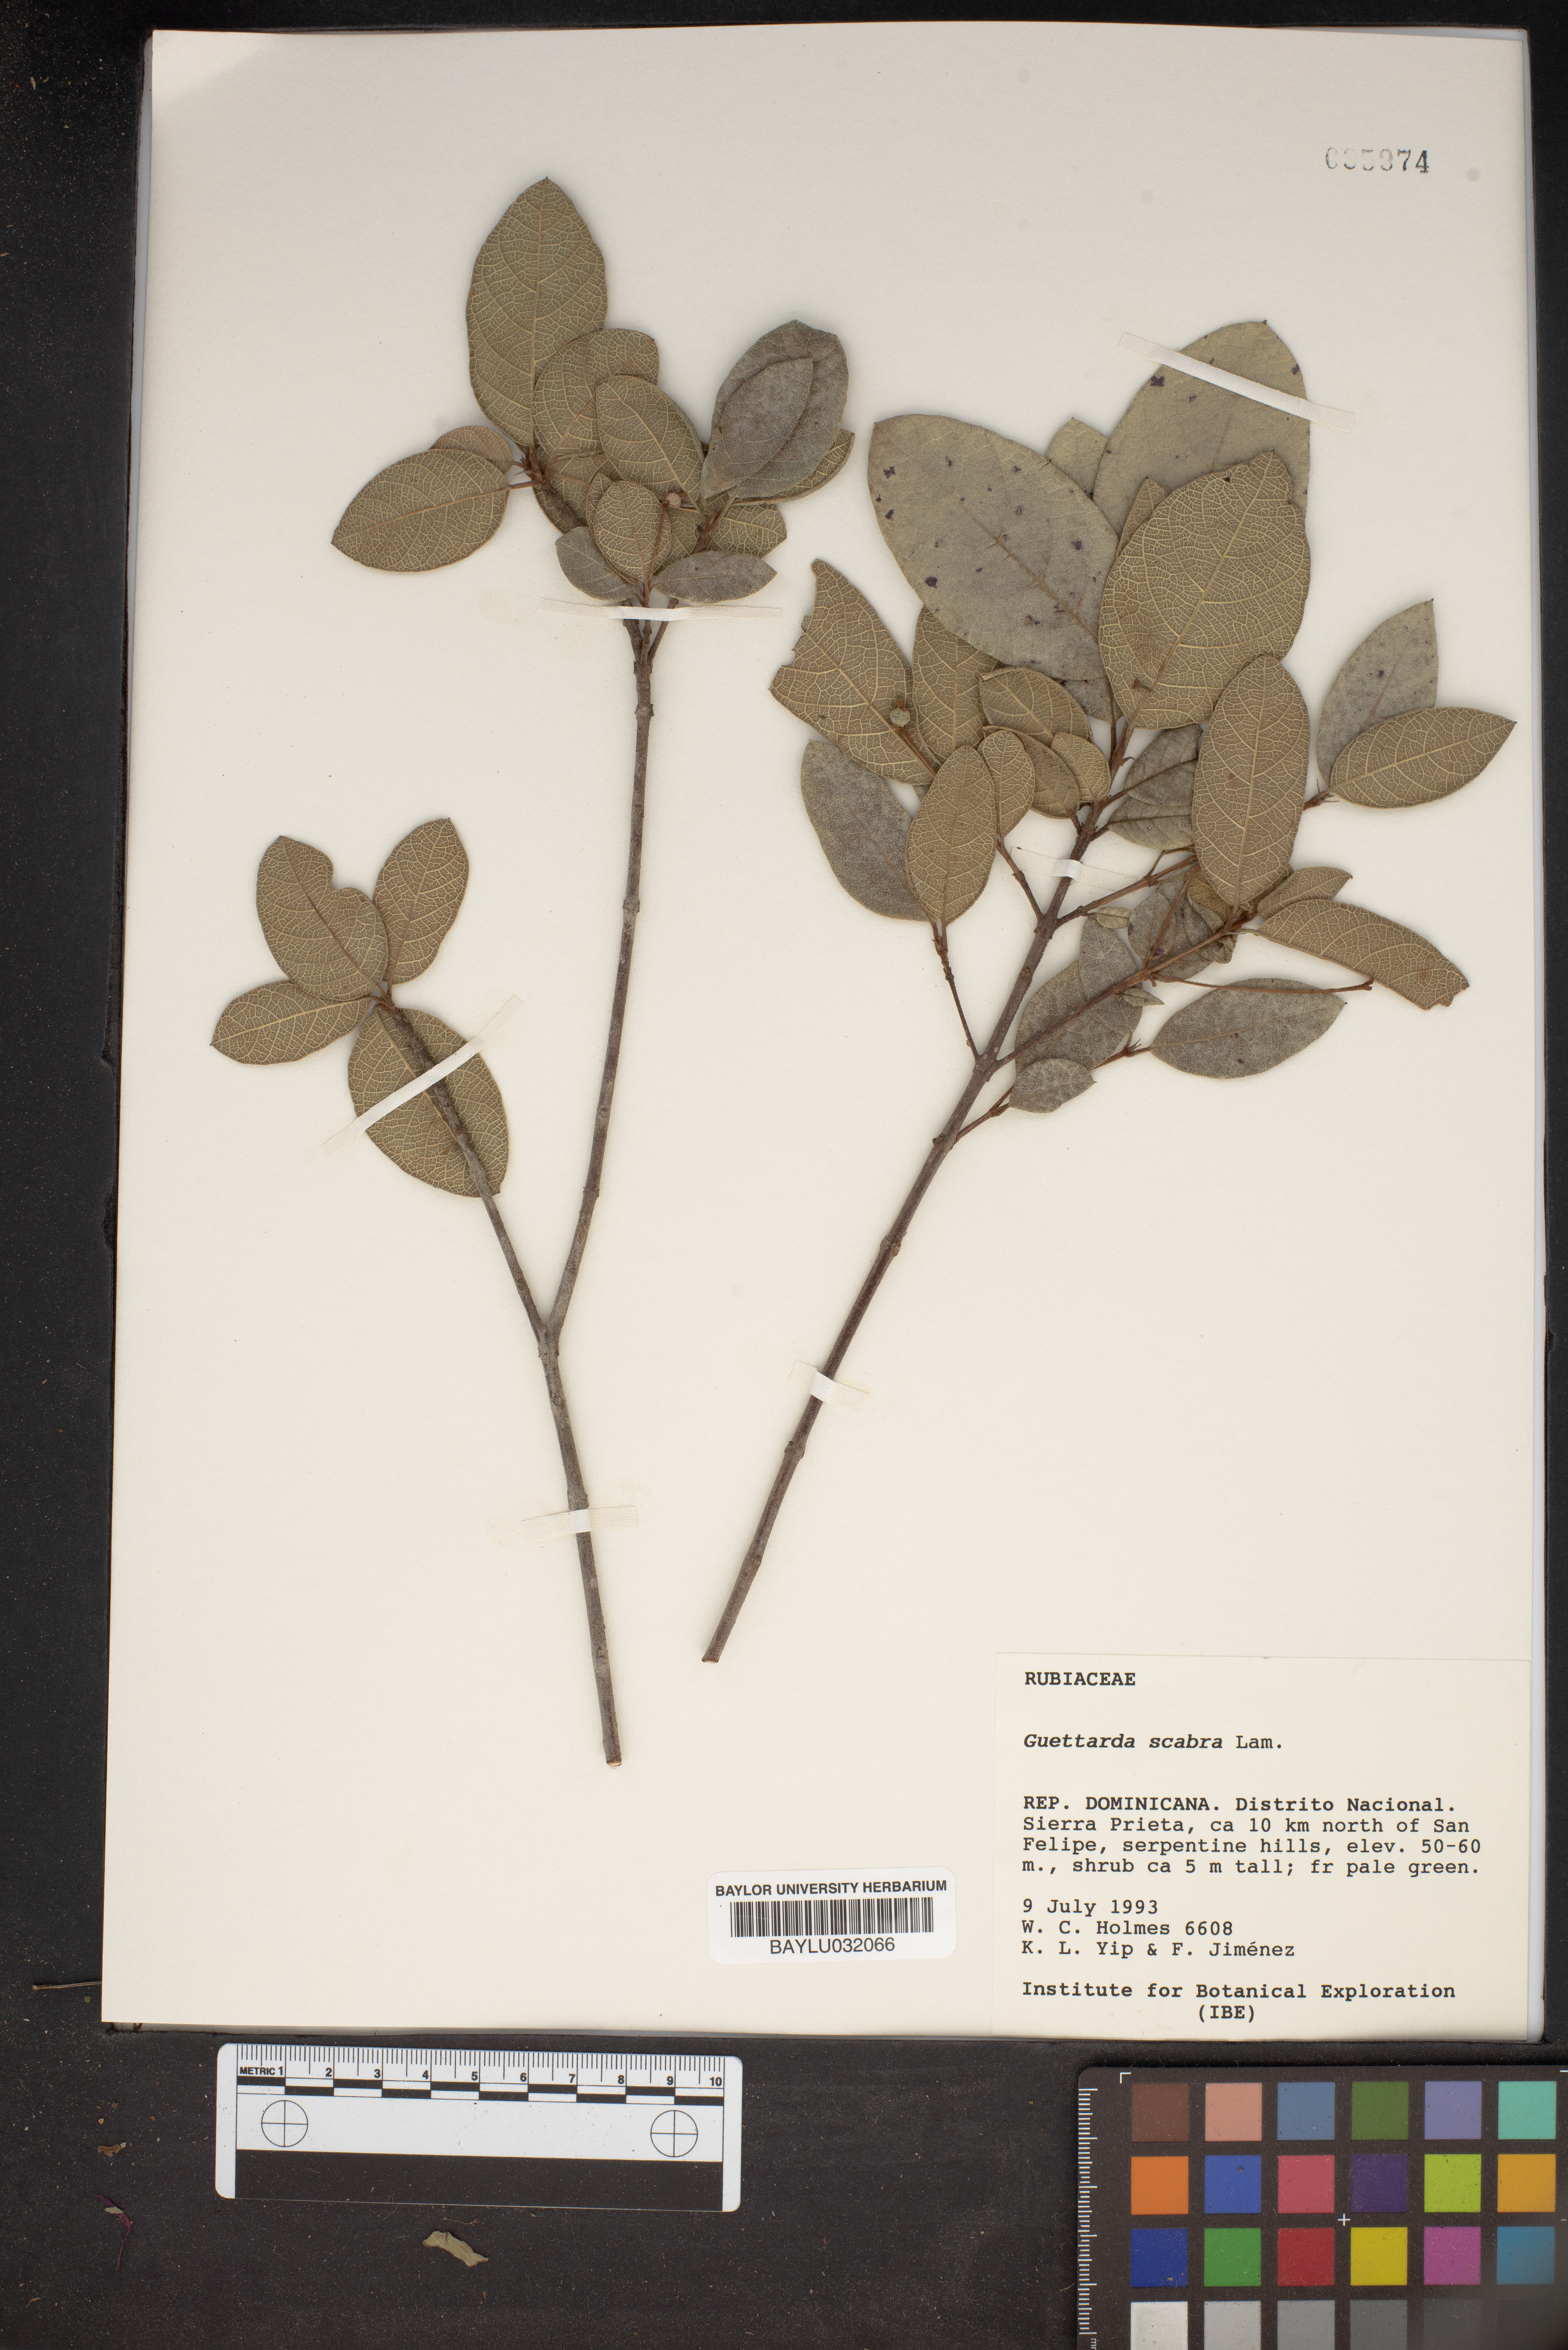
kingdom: Plantae
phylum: Tracheophyta
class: Magnoliopsida
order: Gentianales
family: Rubiaceae
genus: Guettarda
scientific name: Guettarda scabra
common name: Pigeon bay
